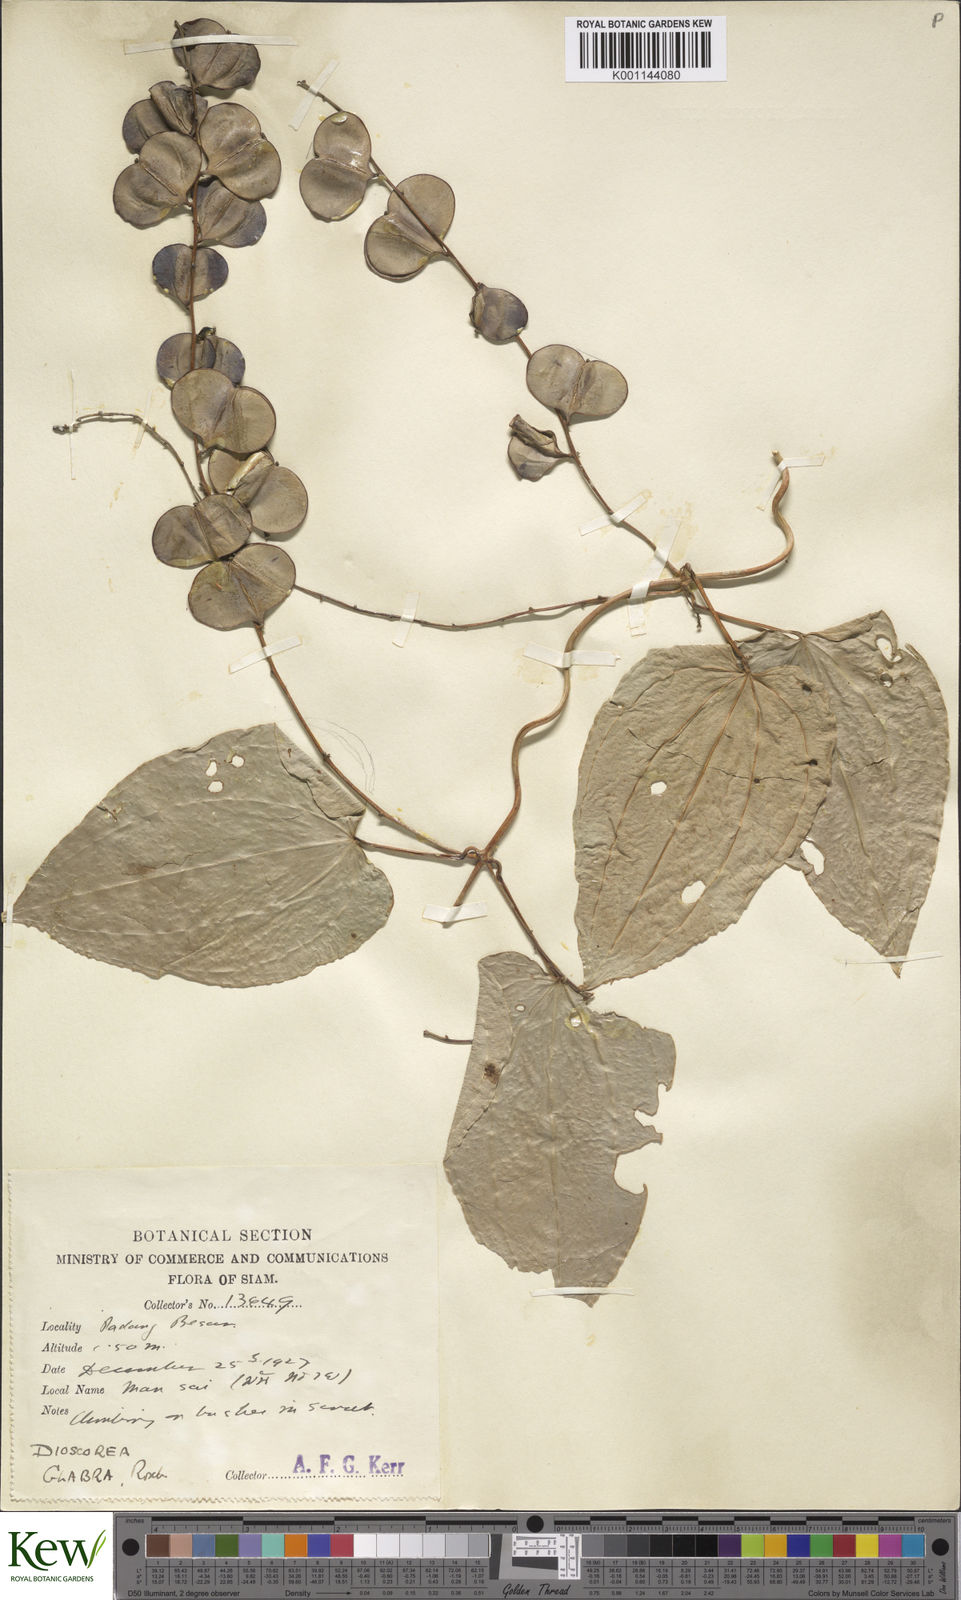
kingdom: Plantae
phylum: Tracheophyta
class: Liliopsida
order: Dioscoreales
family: Dioscoreaceae
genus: Dioscorea
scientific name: Dioscorea glabra
